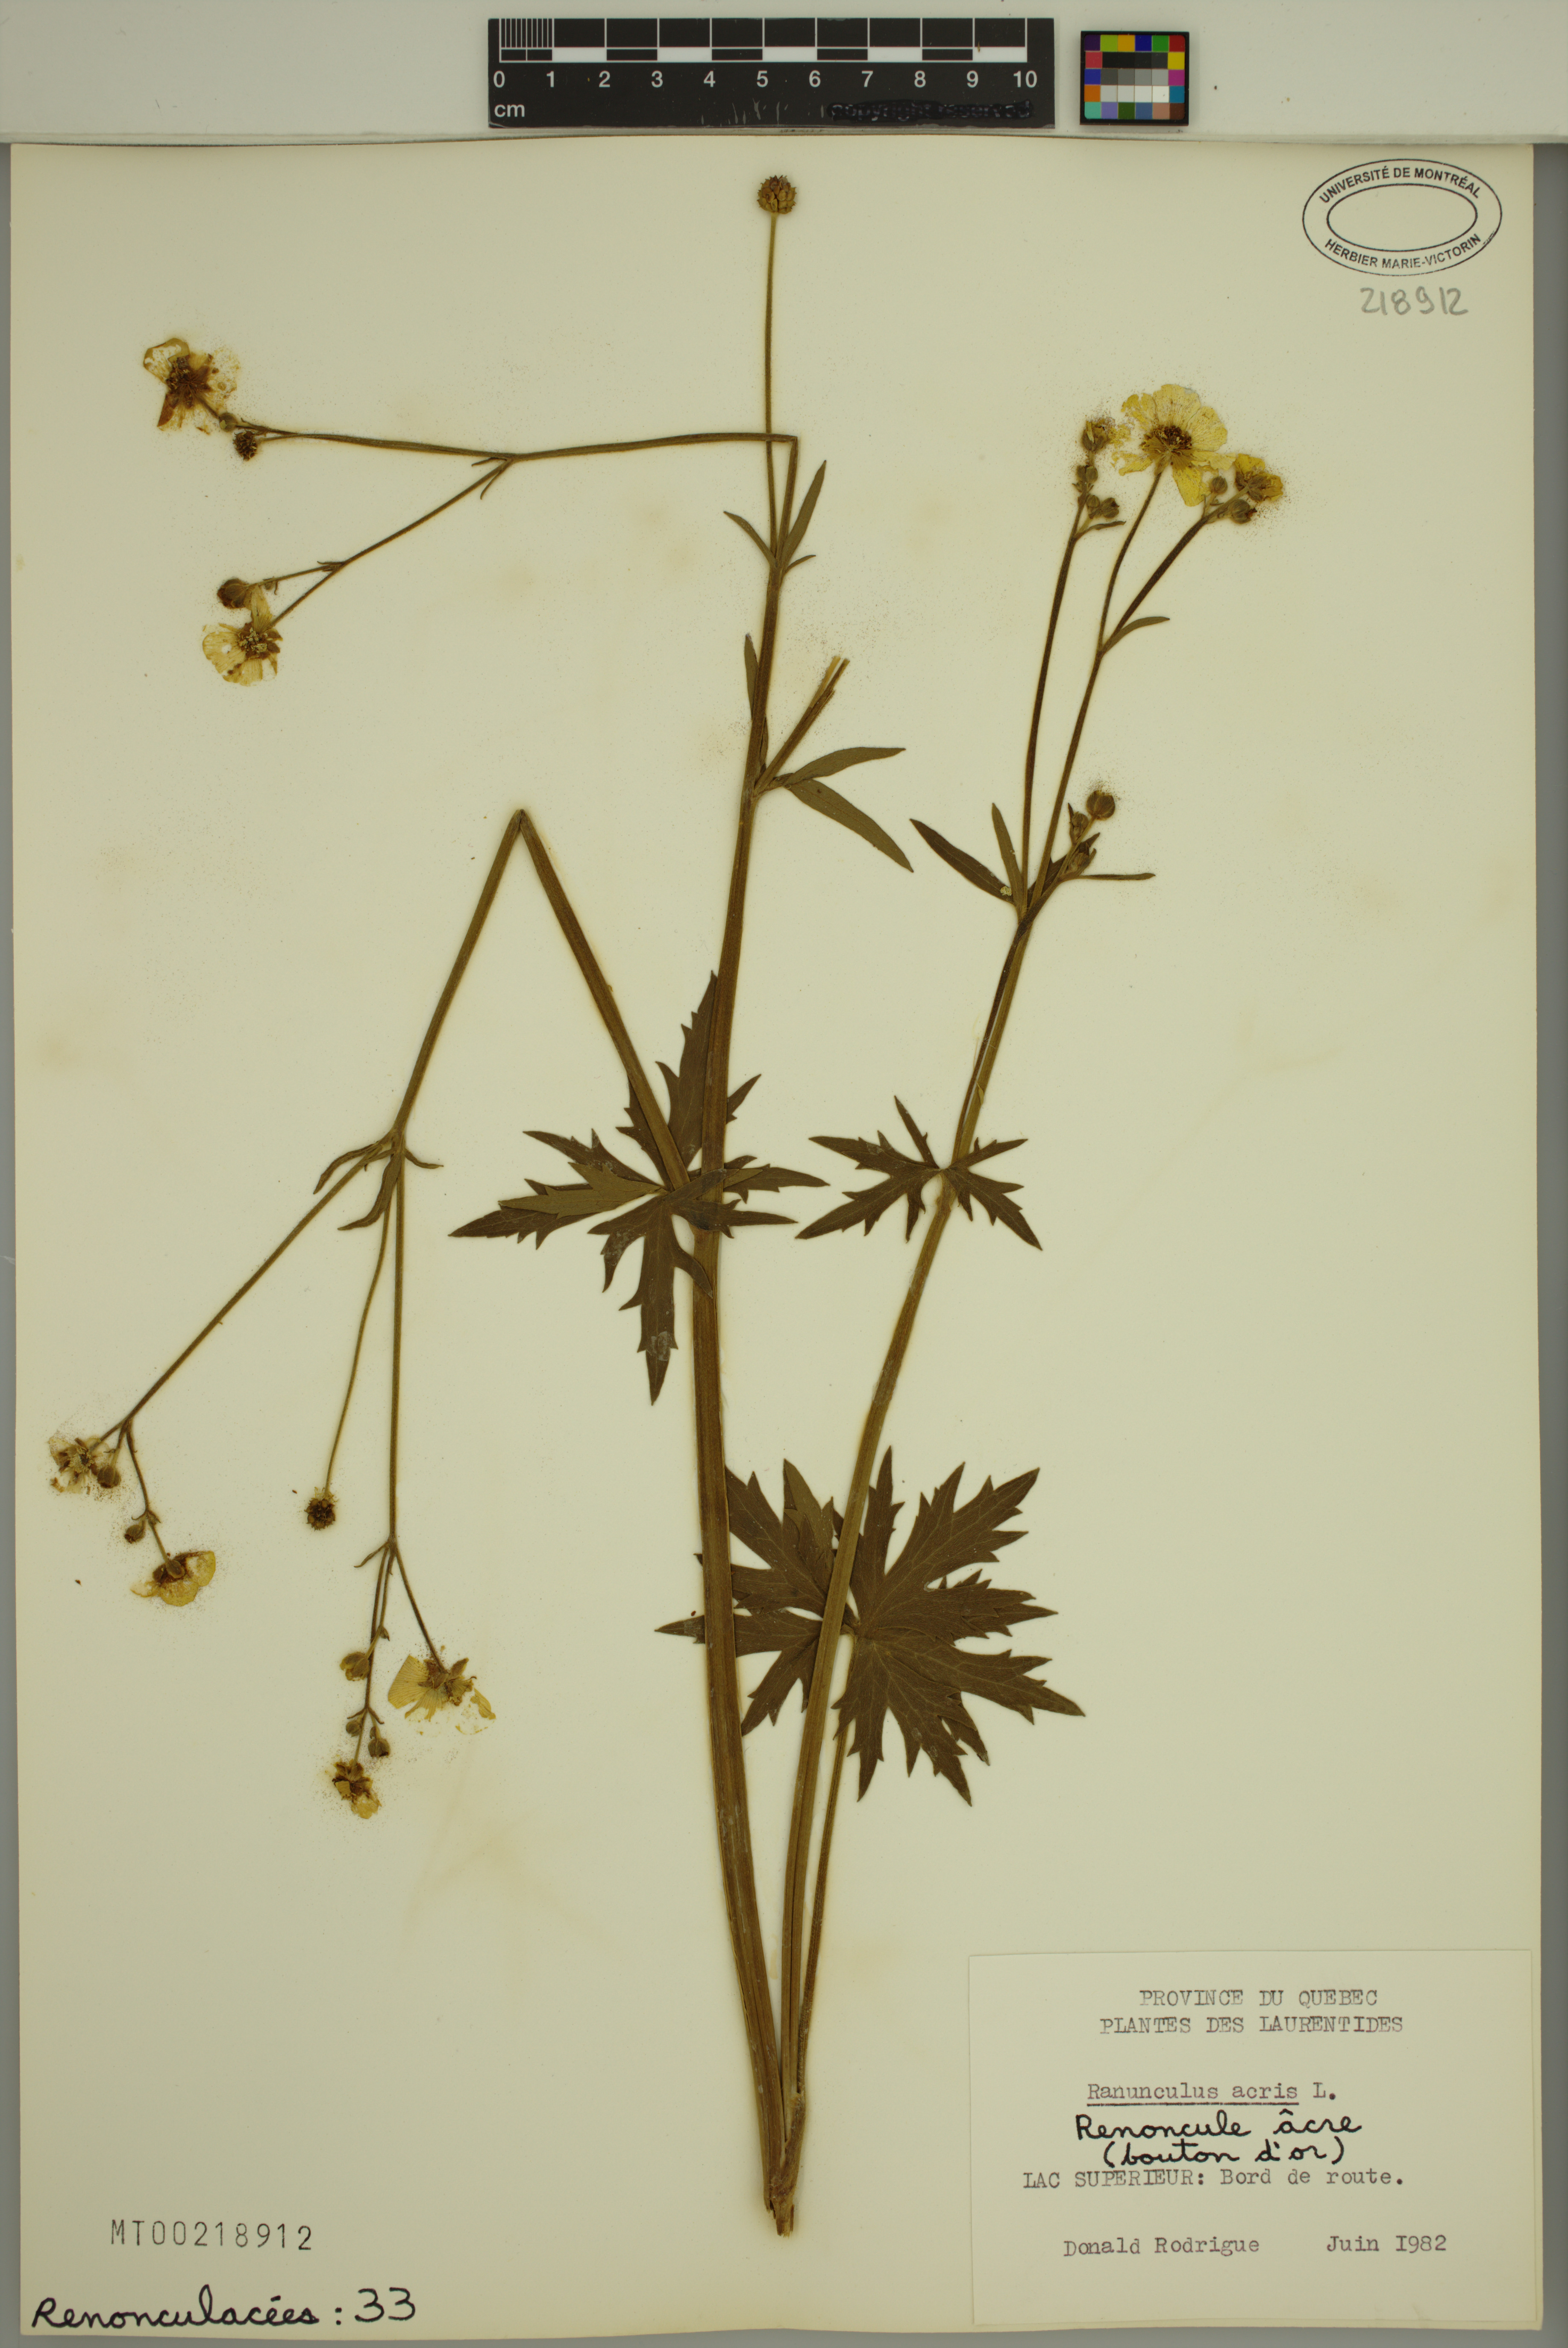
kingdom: Plantae
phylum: Tracheophyta
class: Magnoliopsida
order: Ranunculales
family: Ranunculaceae
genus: Ranunculus
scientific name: Ranunculus acris
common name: Meadow buttercup
